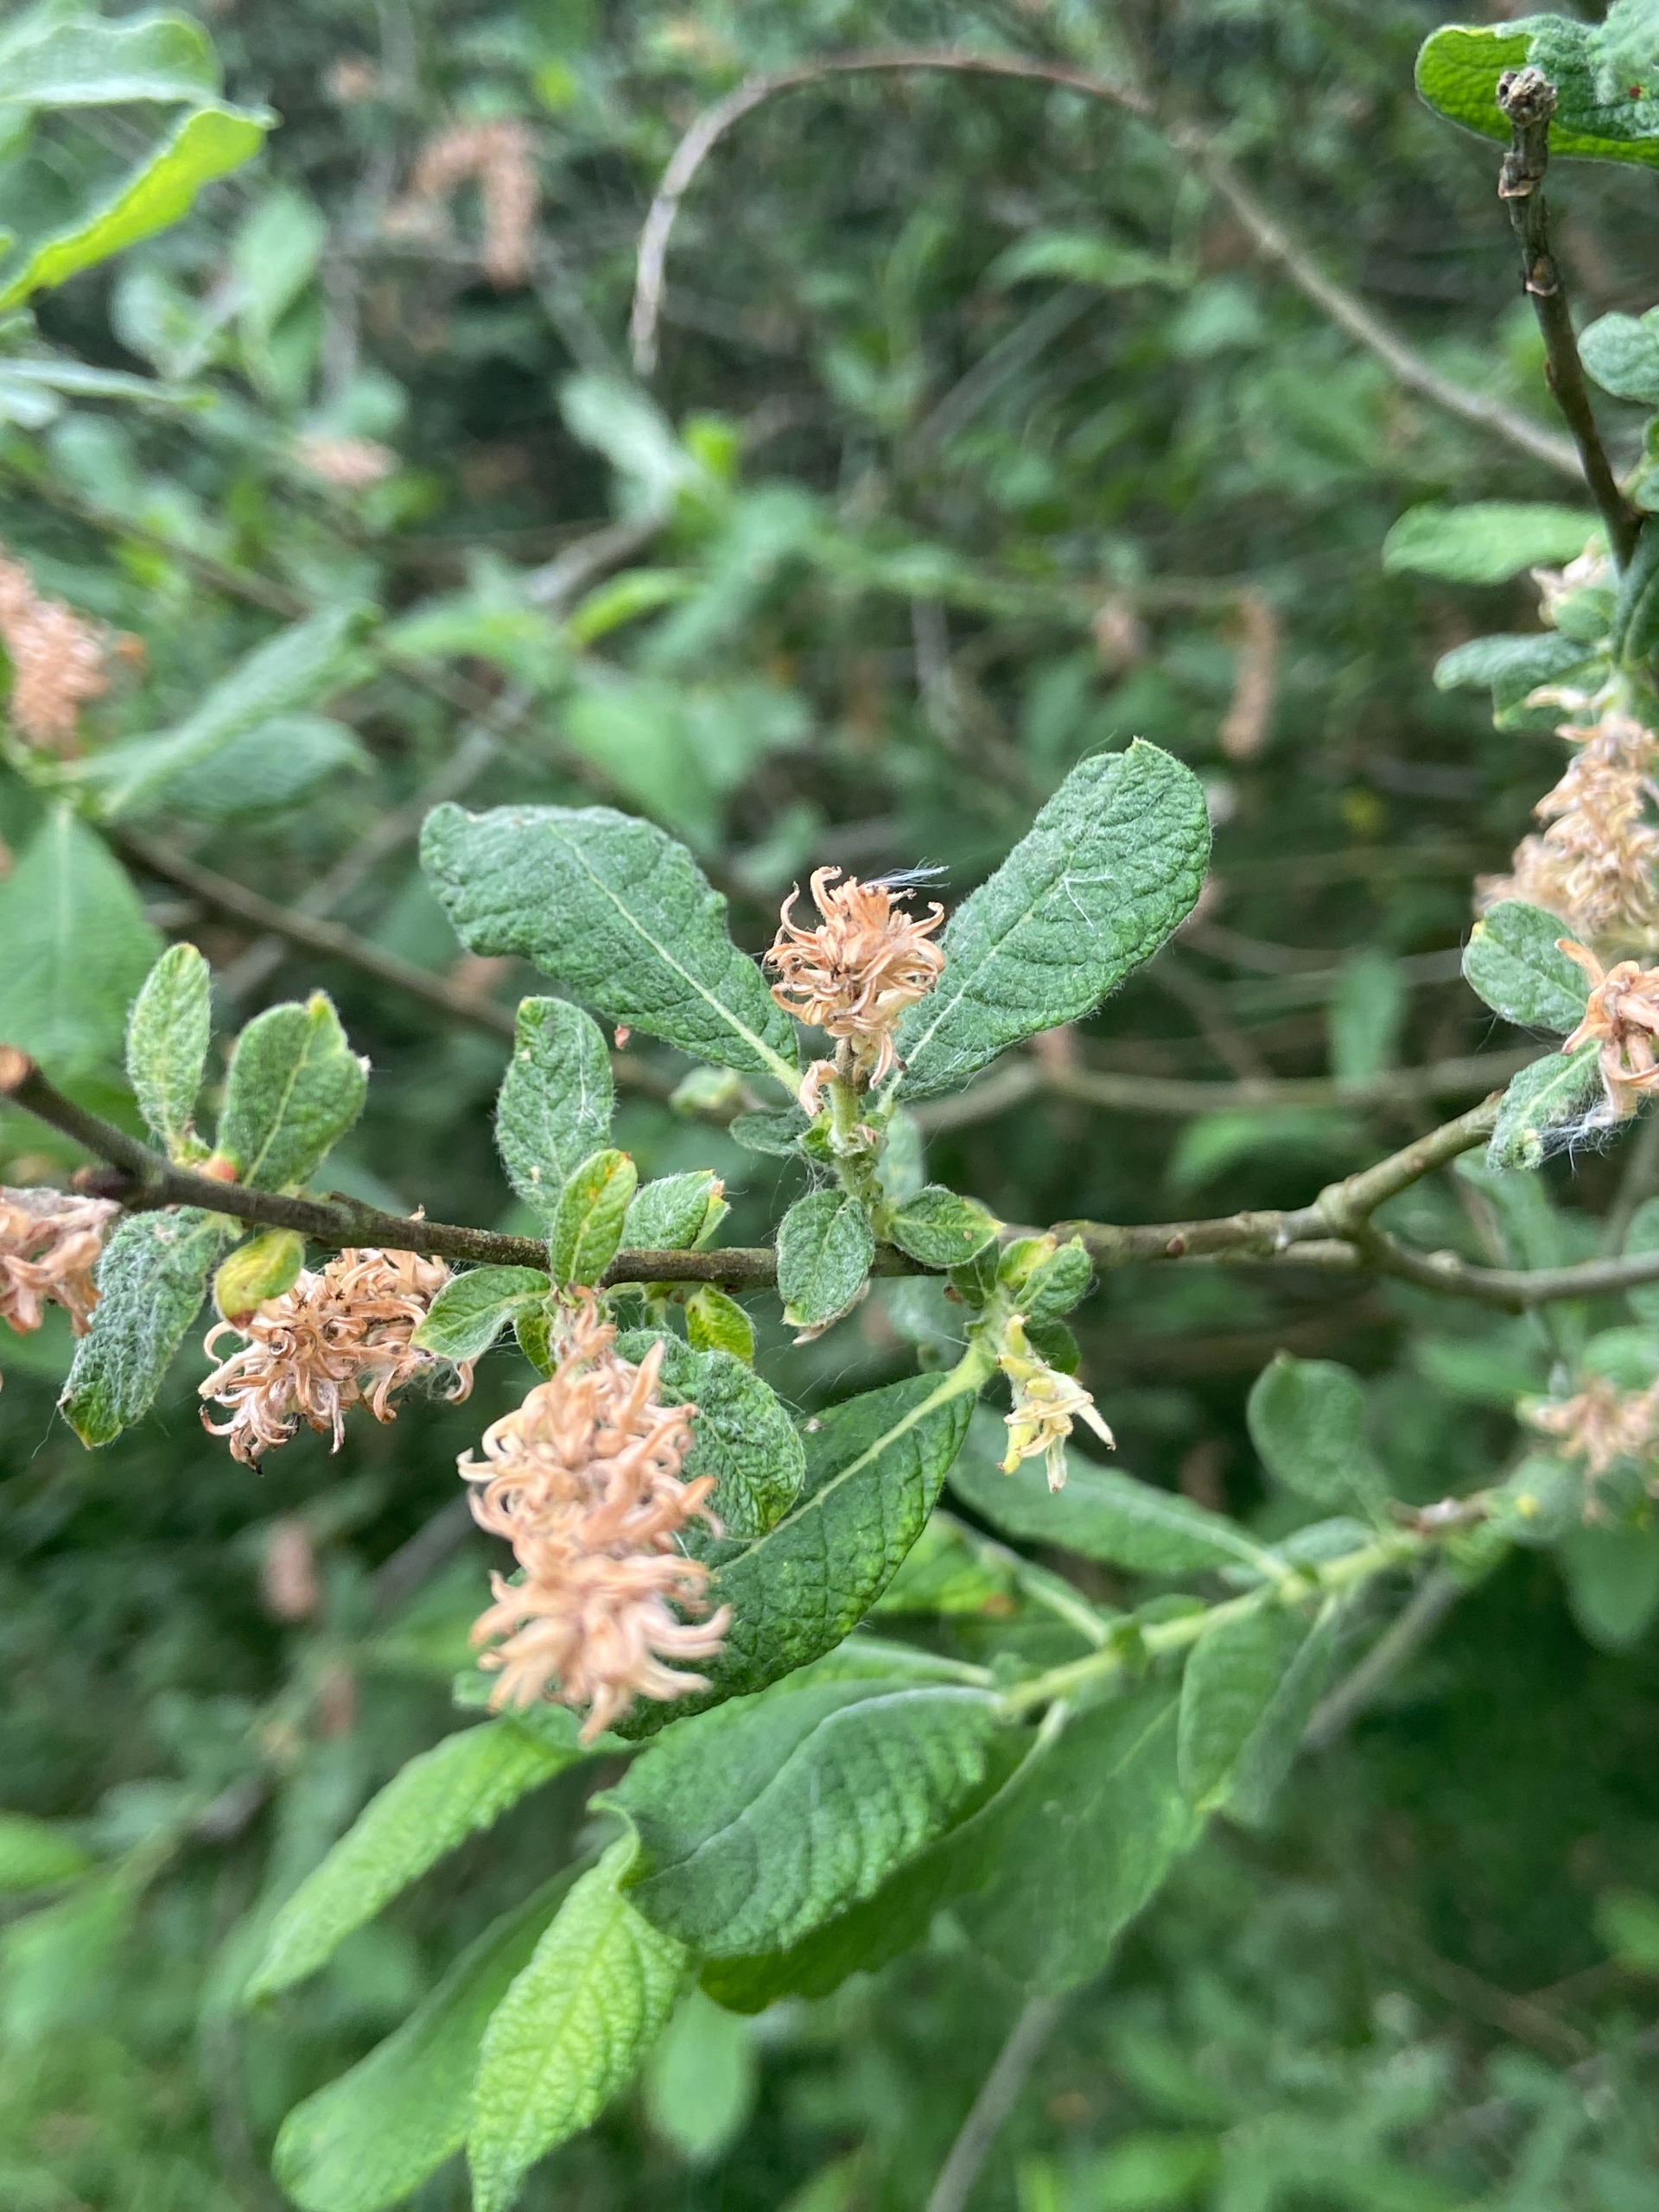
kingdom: Plantae
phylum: Tracheophyta
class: Magnoliopsida
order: Malpighiales
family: Salicaceae
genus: Salix
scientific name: Salix aurita
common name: Øret pil
